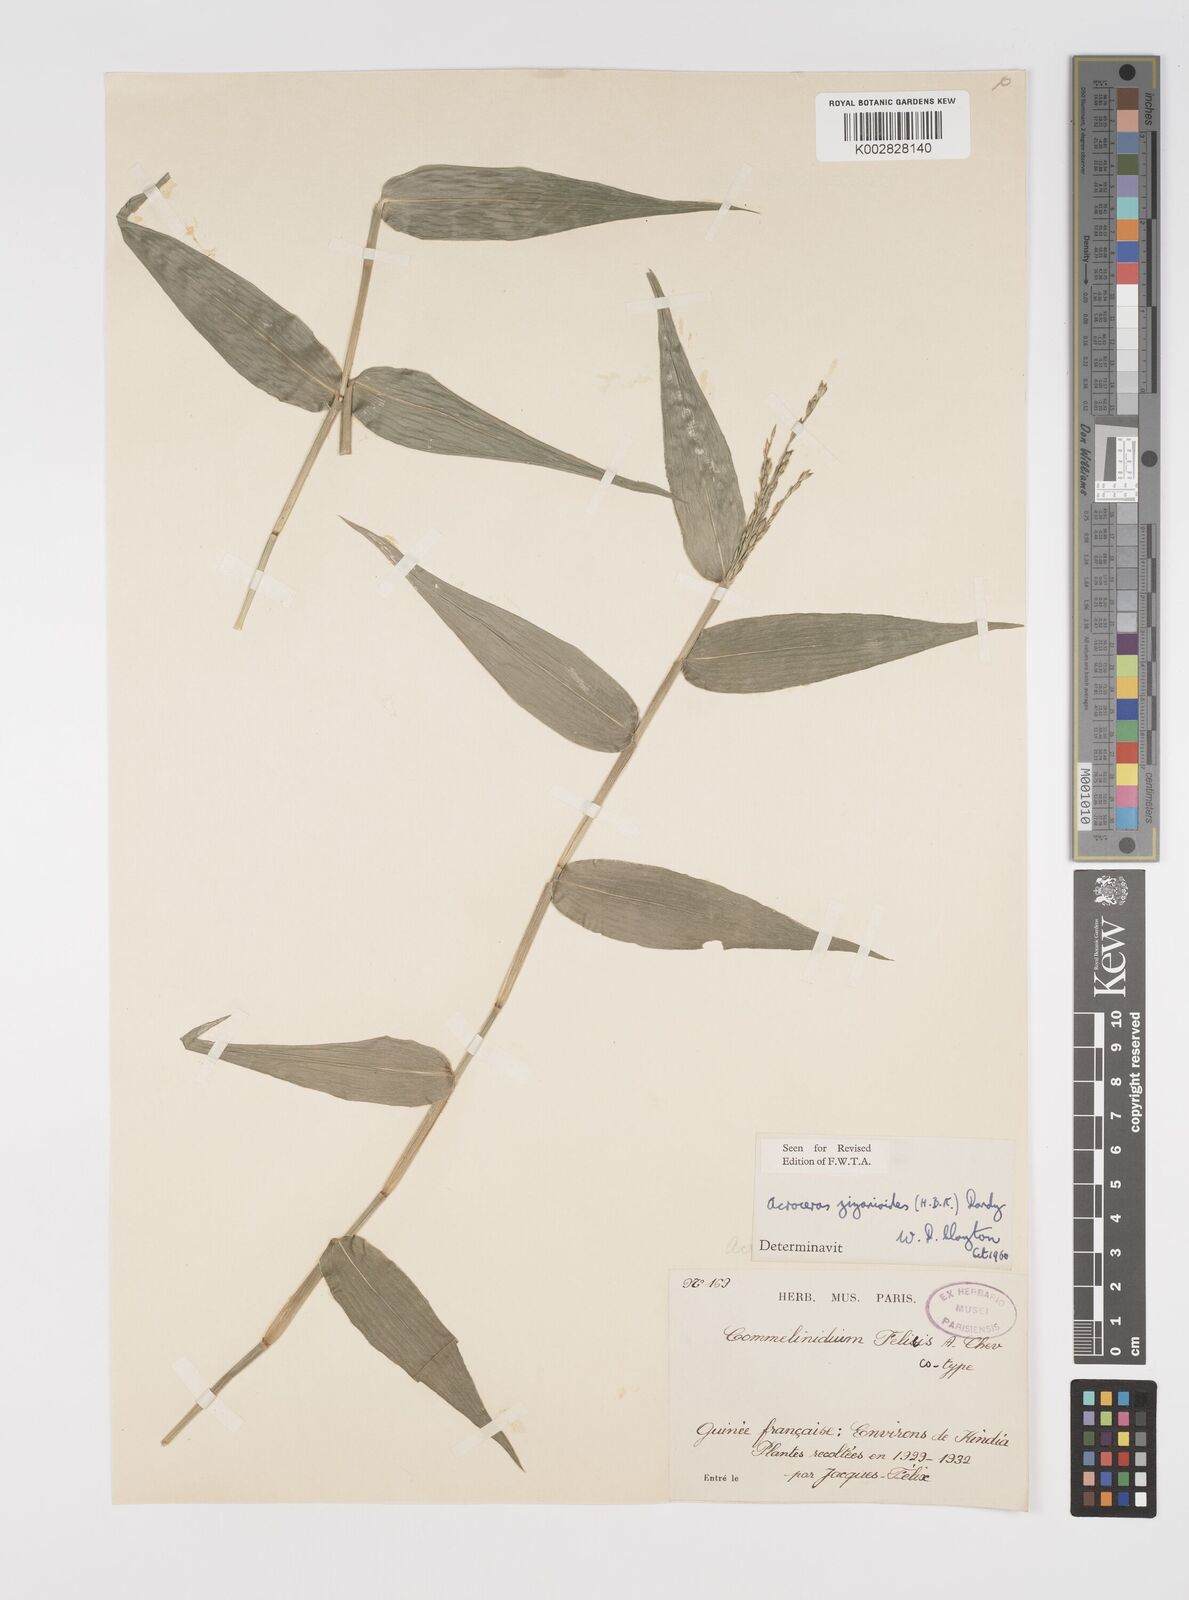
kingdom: Plantae
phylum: Tracheophyta
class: Liliopsida
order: Poales
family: Poaceae
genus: Acroceras
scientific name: Acroceras zizanioides
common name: Oat grass
